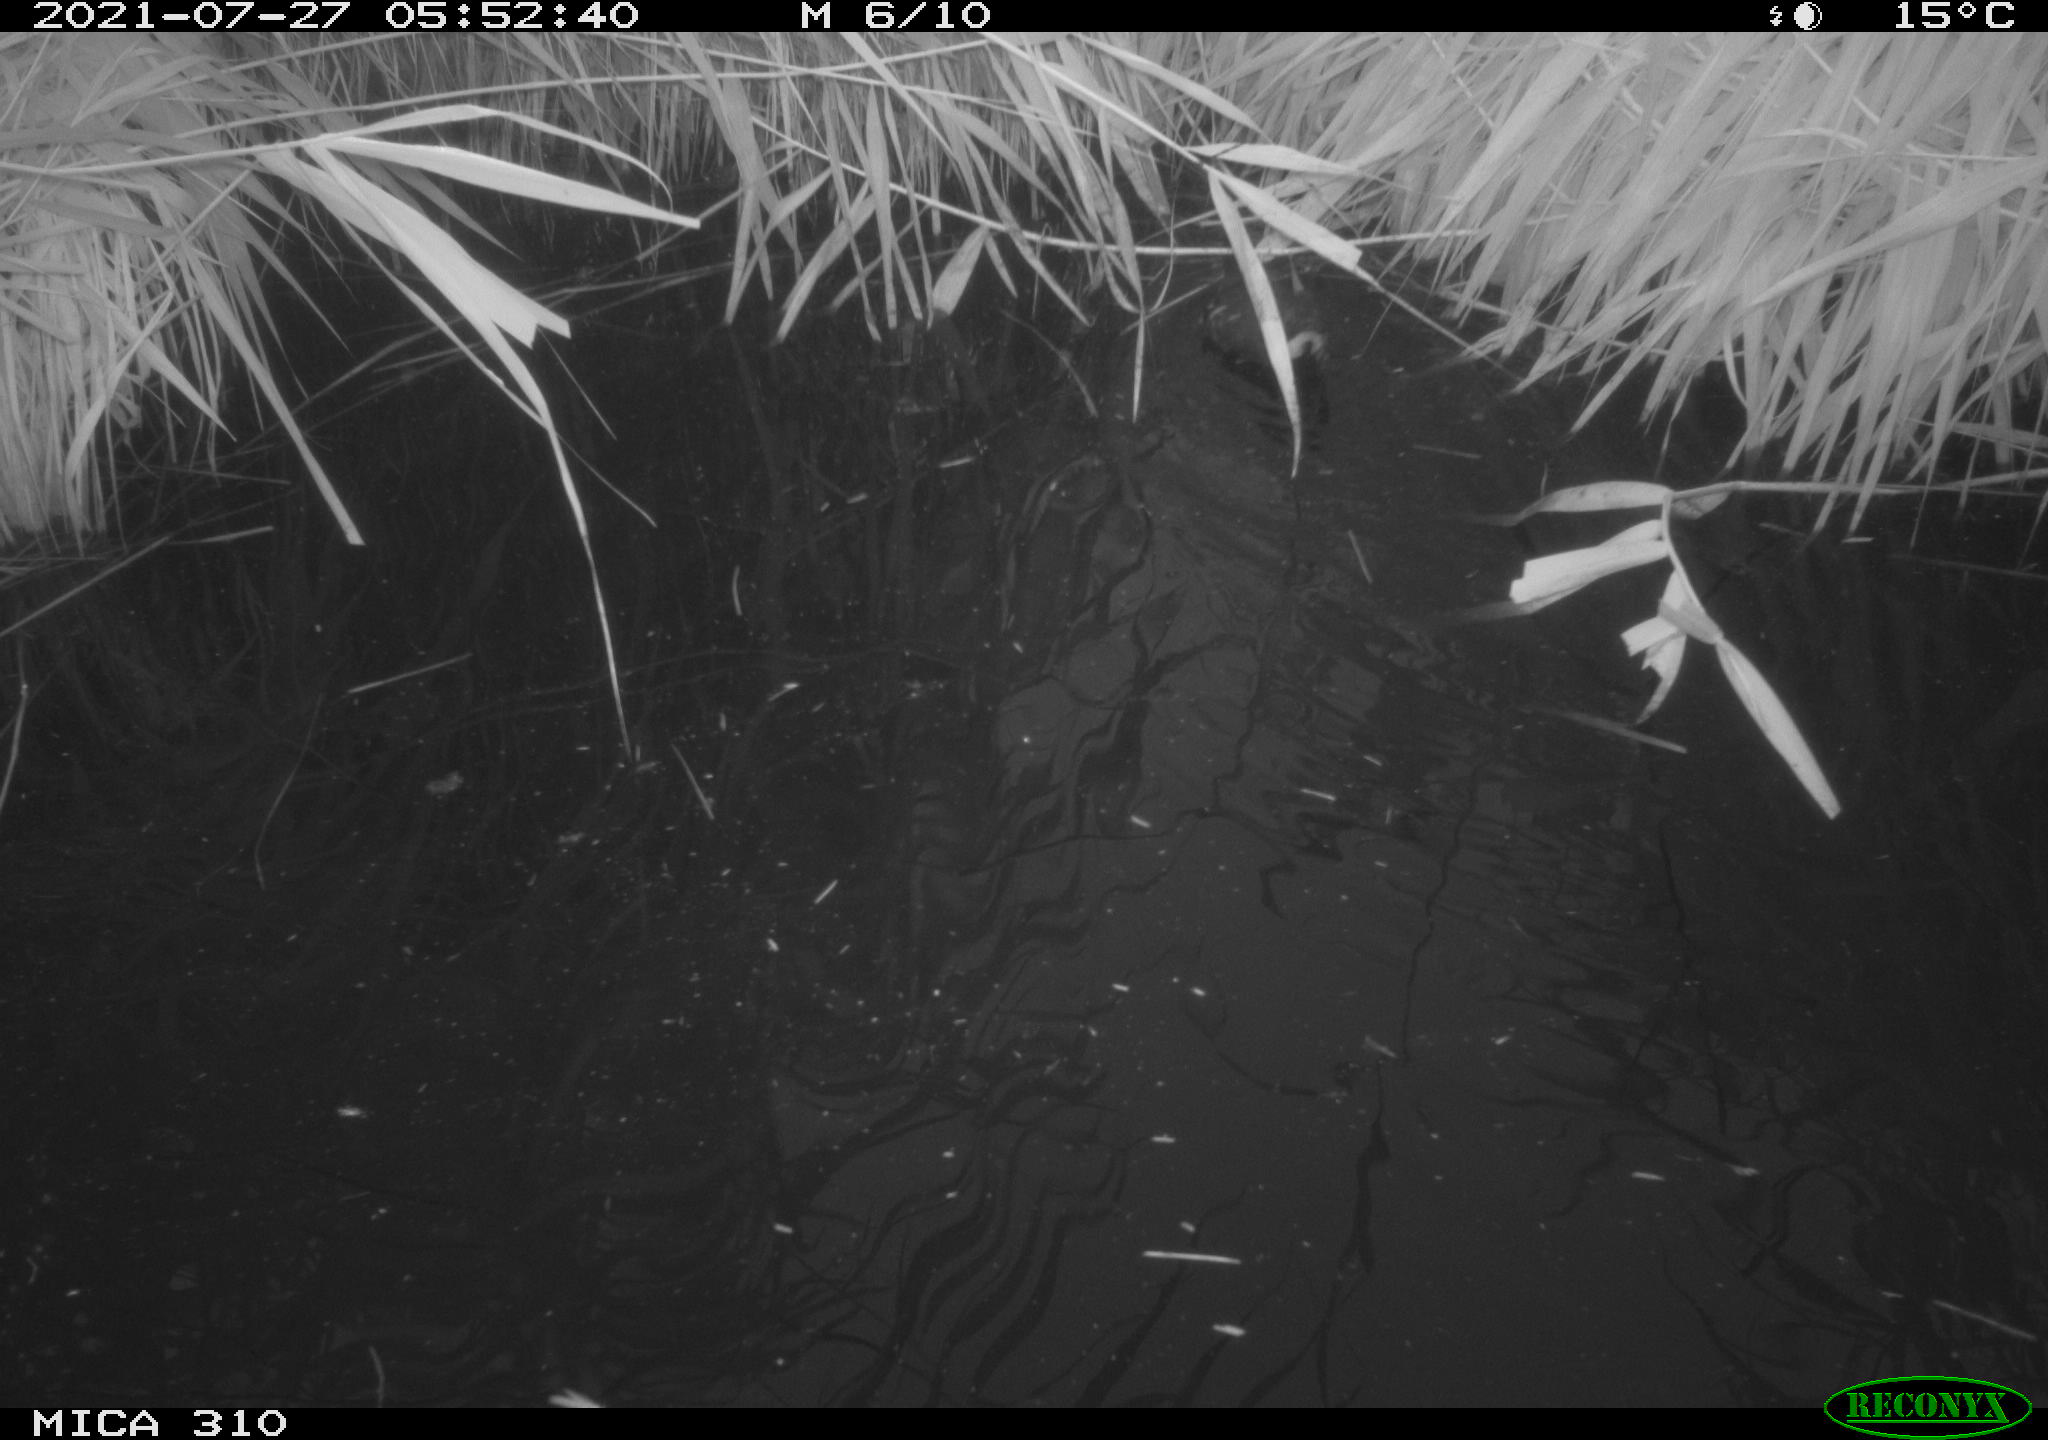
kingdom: Animalia
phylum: Chordata
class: Aves
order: Gruiformes
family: Rallidae
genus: Gallinula
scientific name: Gallinula chloropus
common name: Common moorhen
